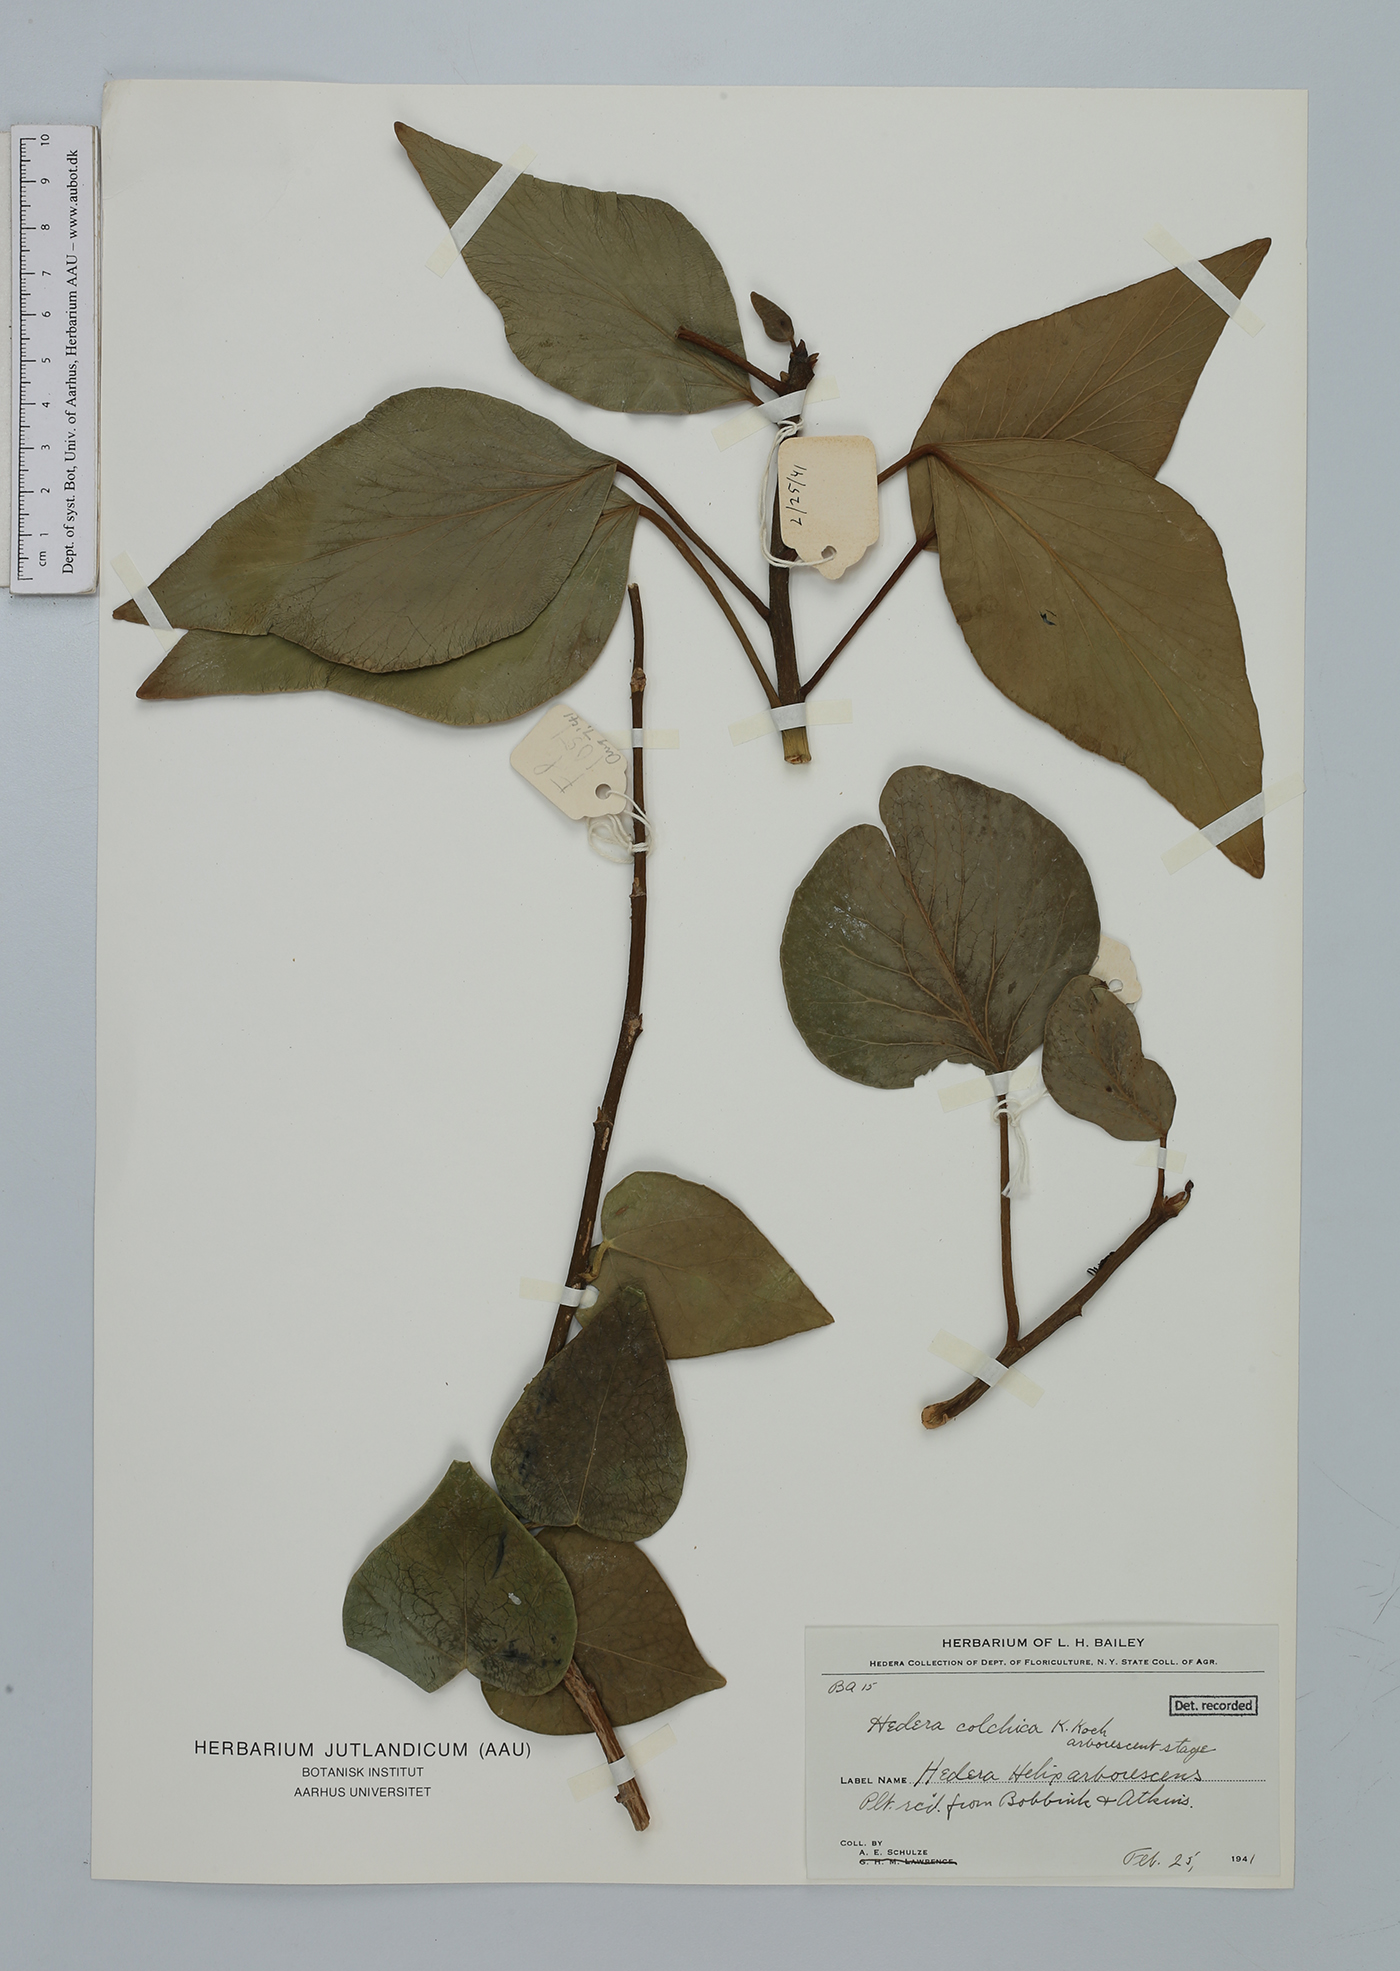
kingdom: Plantae
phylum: Tracheophyta
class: Magnoliopsida
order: Apiales
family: Araliaceae
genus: Hedera
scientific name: Hedera helix
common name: Ivy
